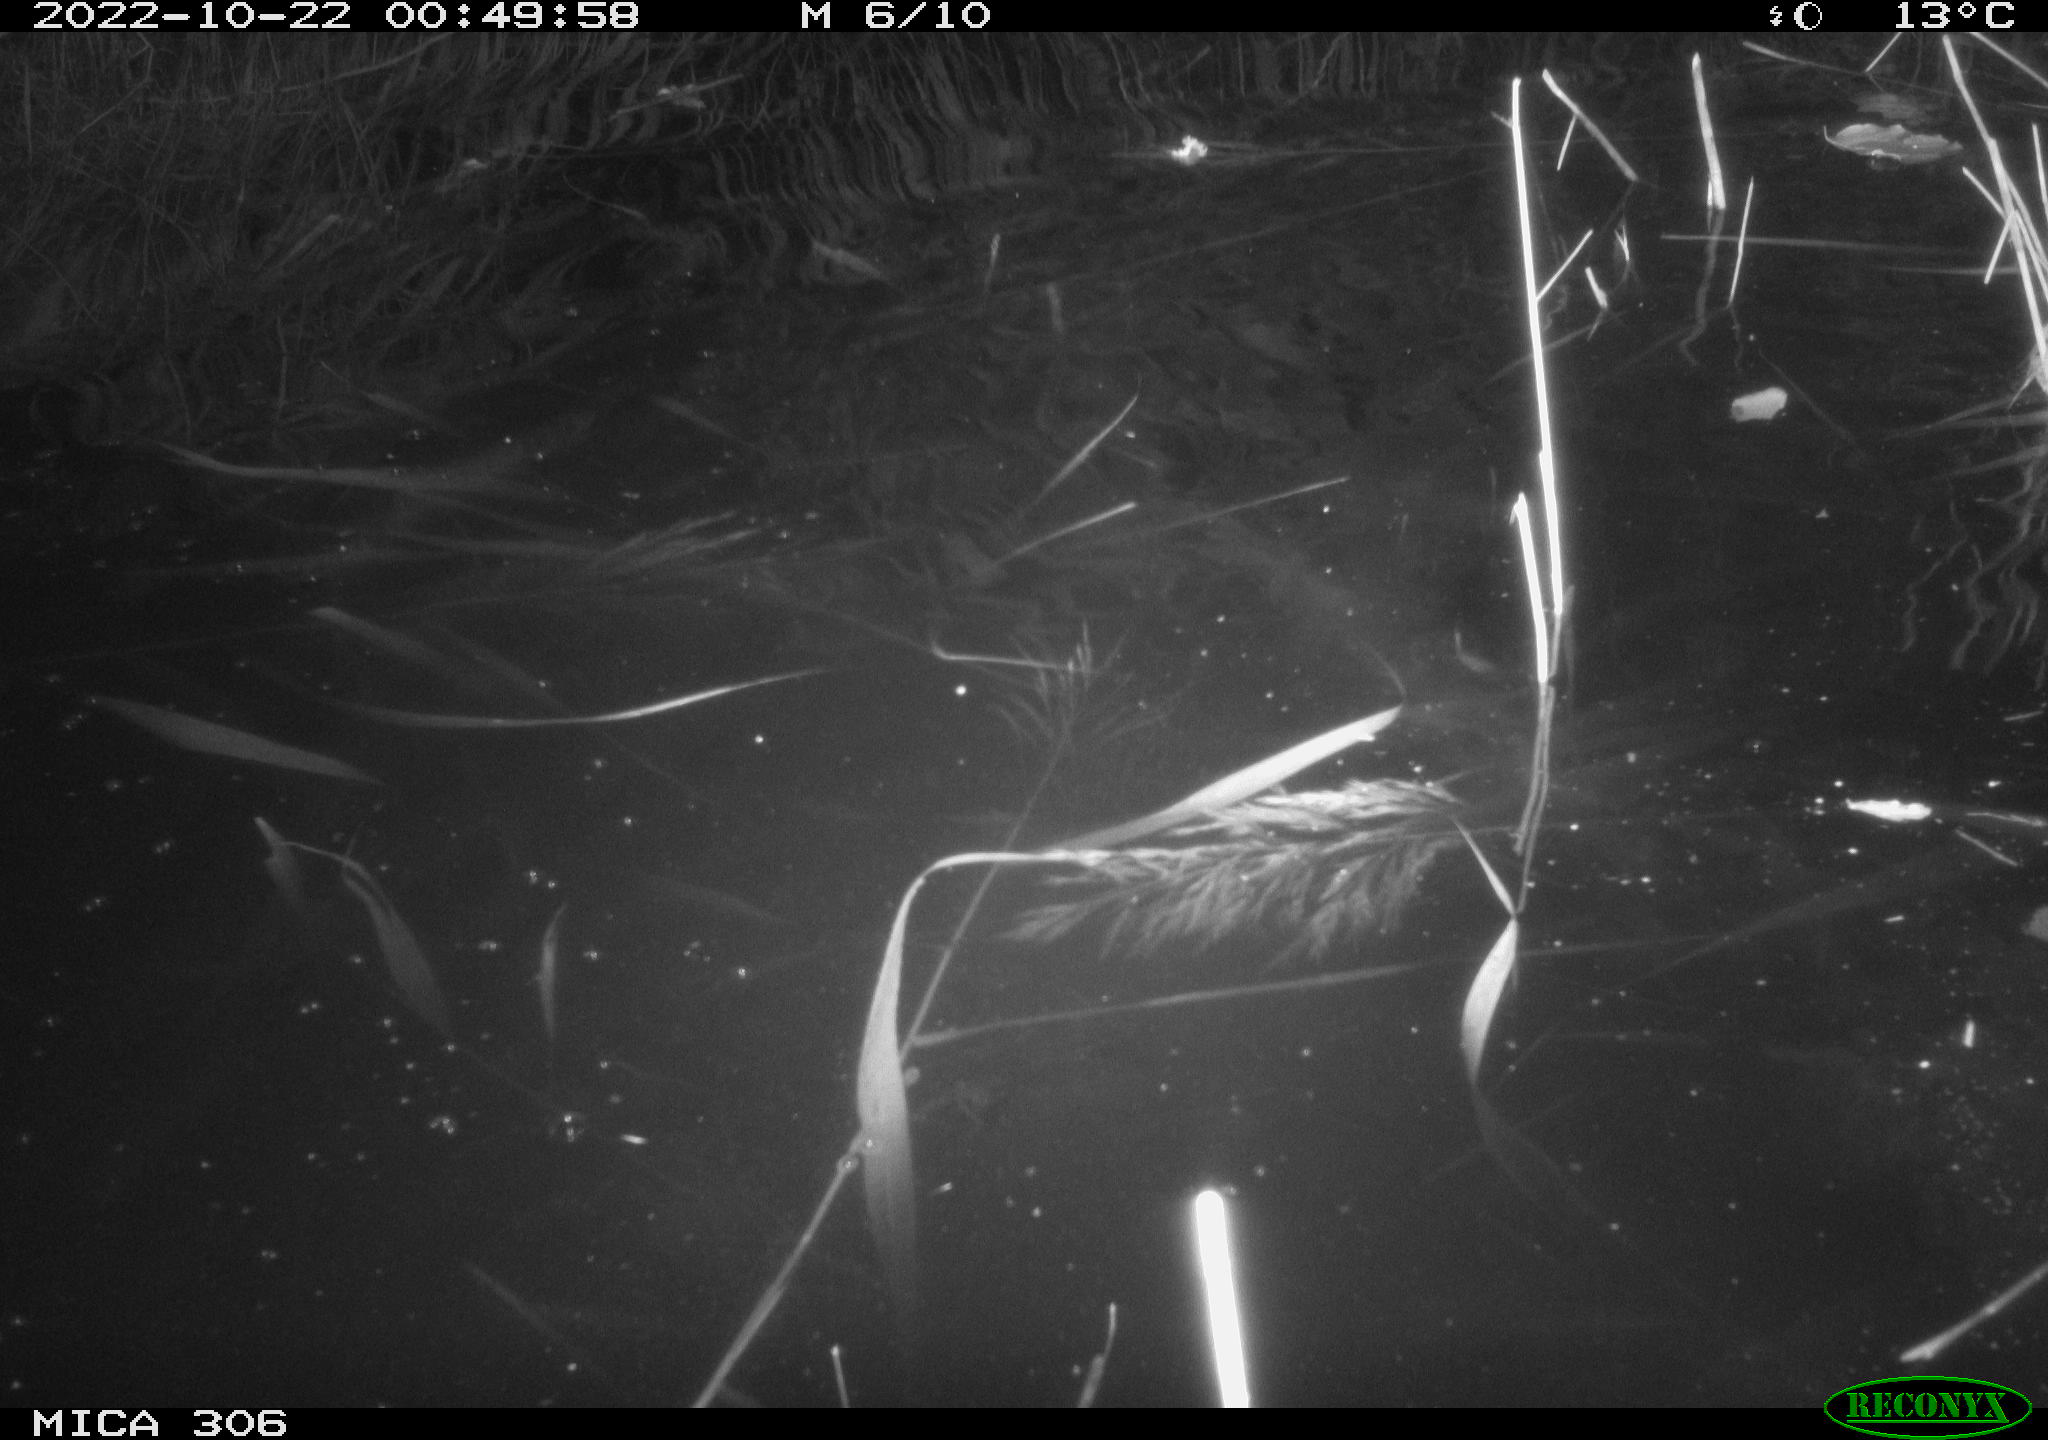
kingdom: Animalia
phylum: Chordata
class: Mammalia
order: Rodentia
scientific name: Rodentia
